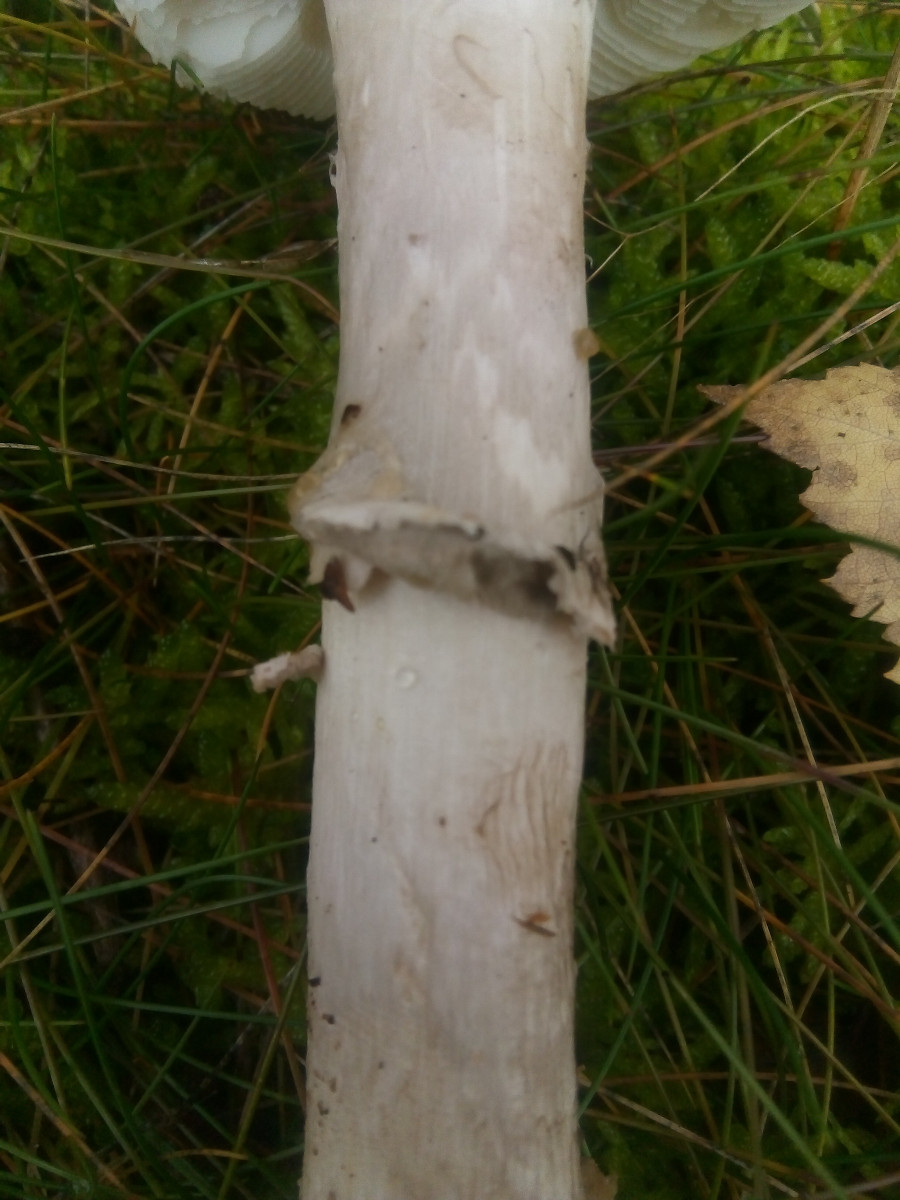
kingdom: Fungi
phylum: Basidiomycota
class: Agaricomycetes
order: Agaricales
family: Amanitaceae
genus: Amanita
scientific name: Amanita porphyria
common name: porfyr-fluesvamp
